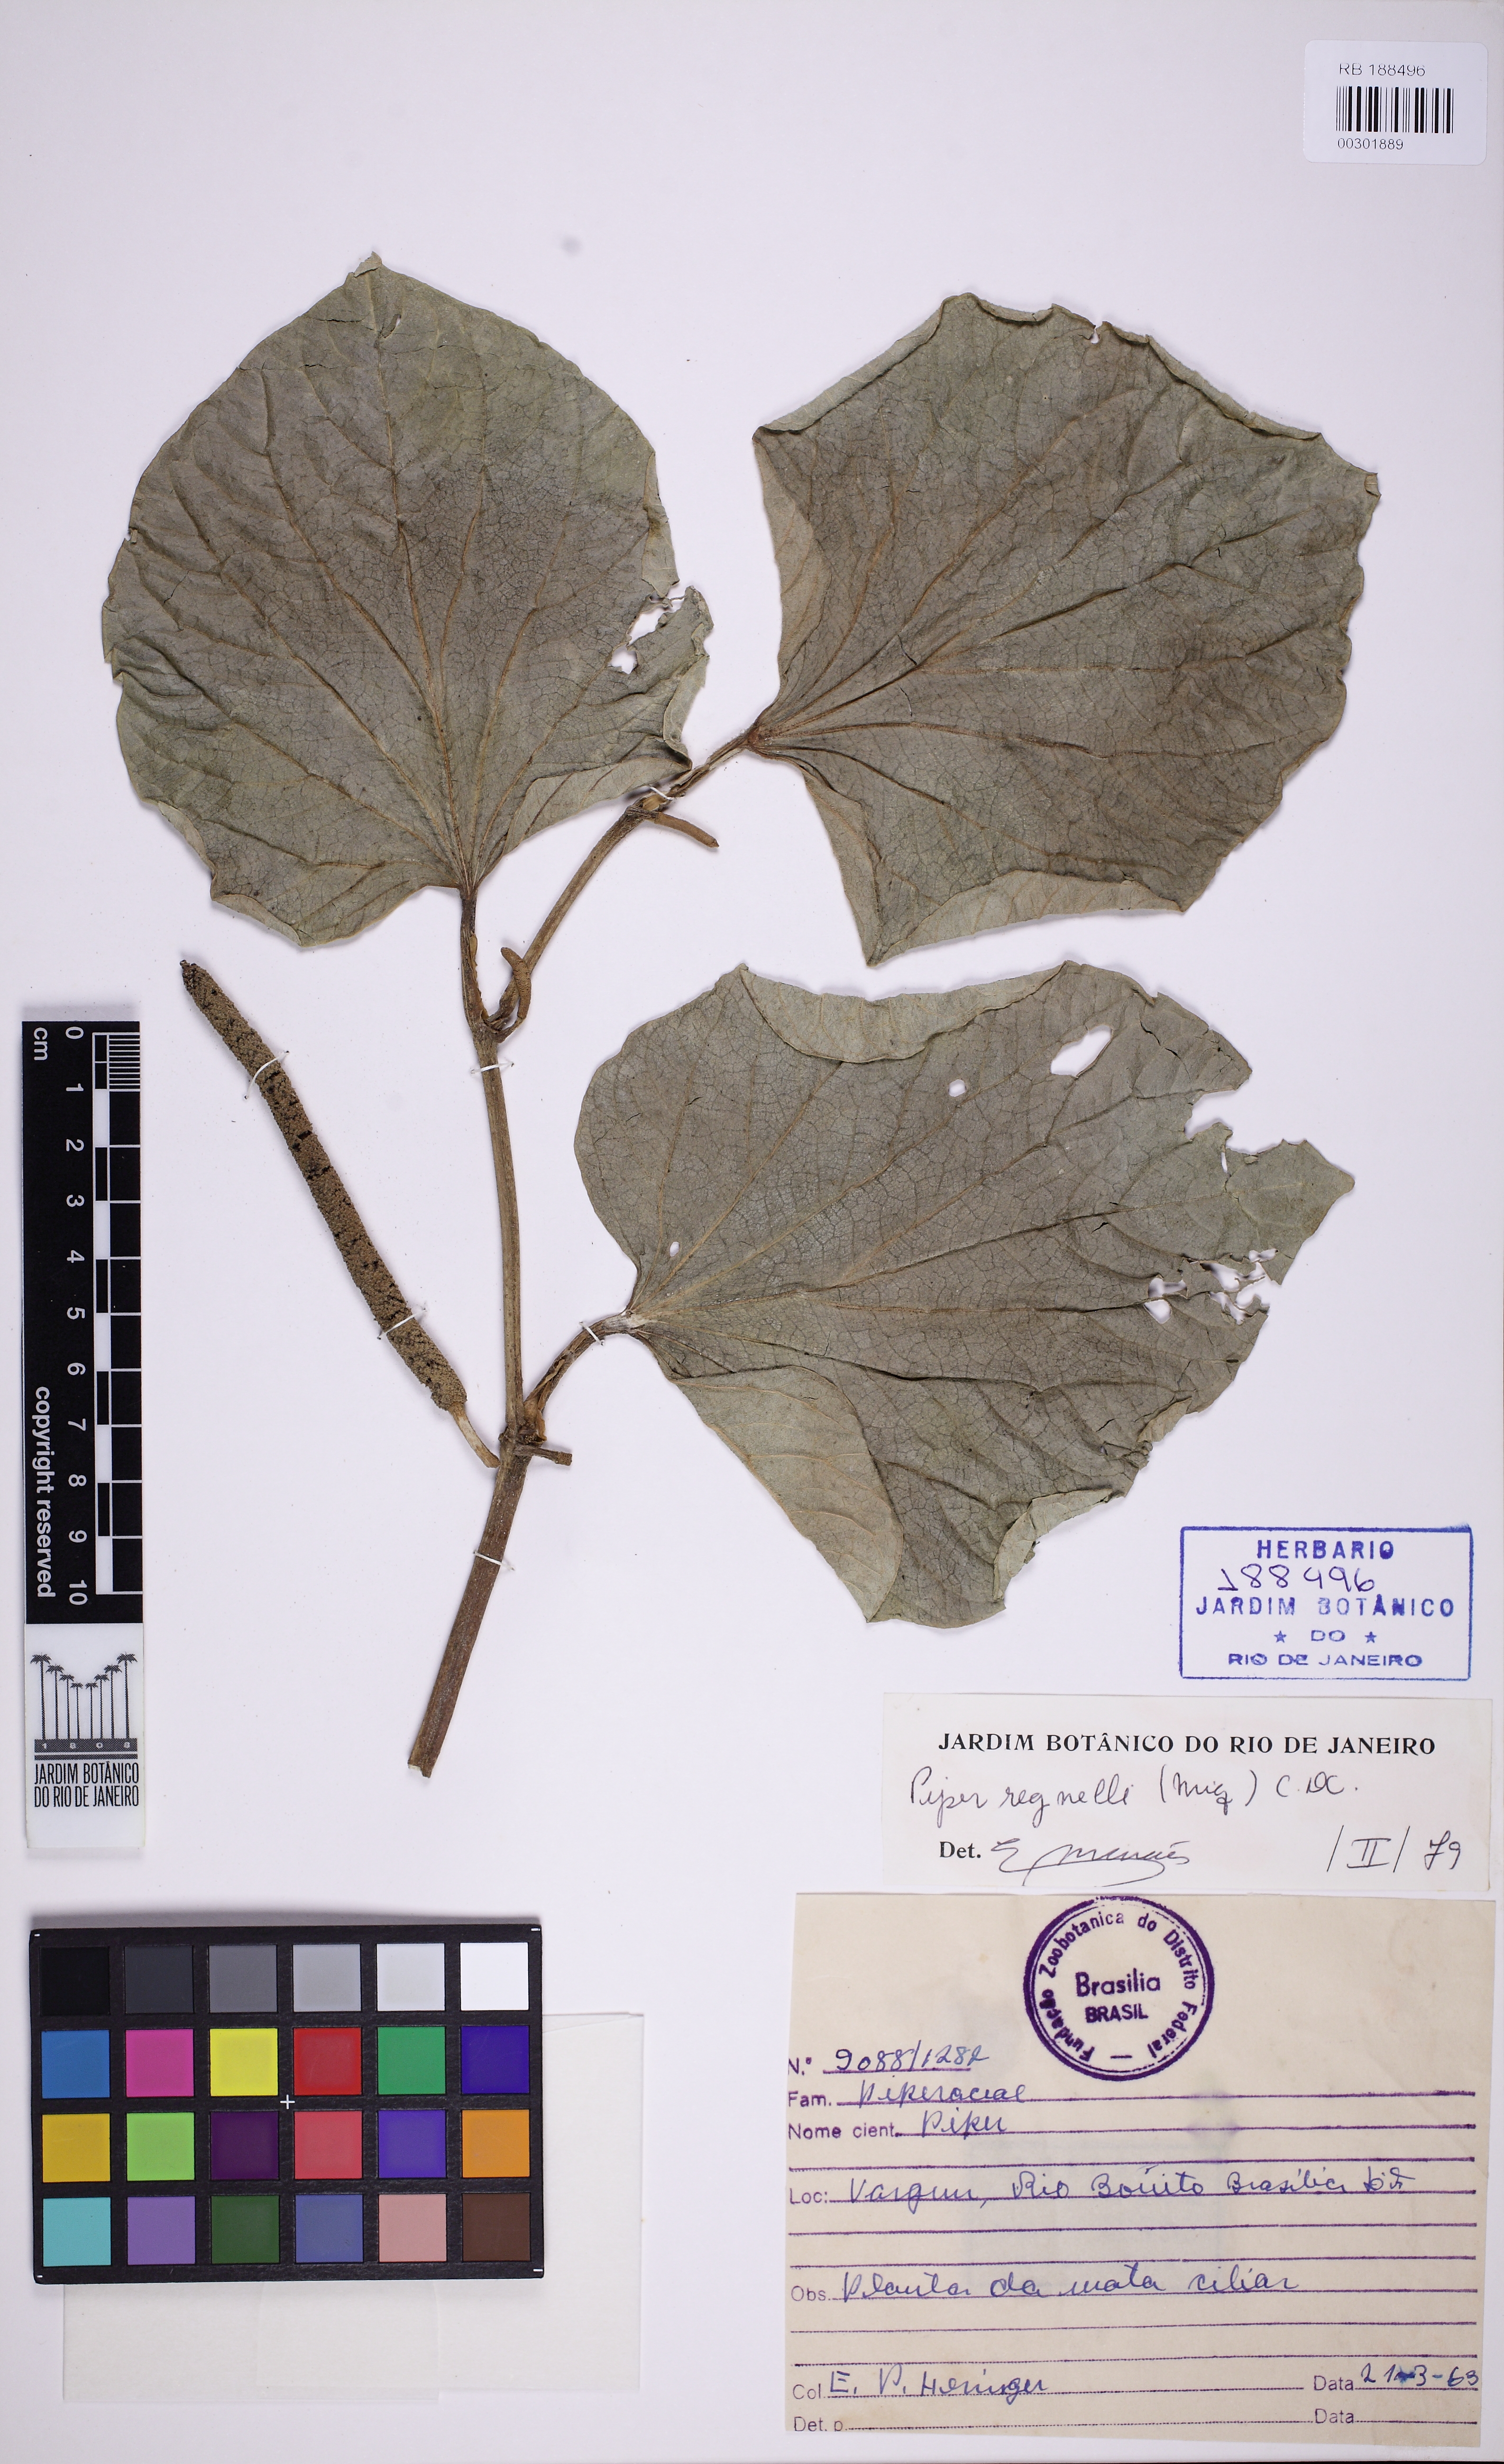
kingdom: Plantae
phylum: Tracheophyta
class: Magnoliopsida
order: Piperales
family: Piperaceae
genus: Piper
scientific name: Piper regnellii
